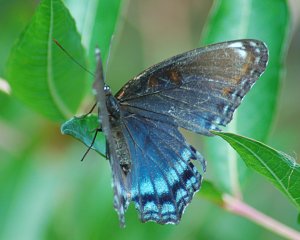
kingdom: Animalia
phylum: Arthropoda
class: Insecta
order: Lepidoptera
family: Nymphalidae
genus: Limenitis
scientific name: Limenitis astyanax
